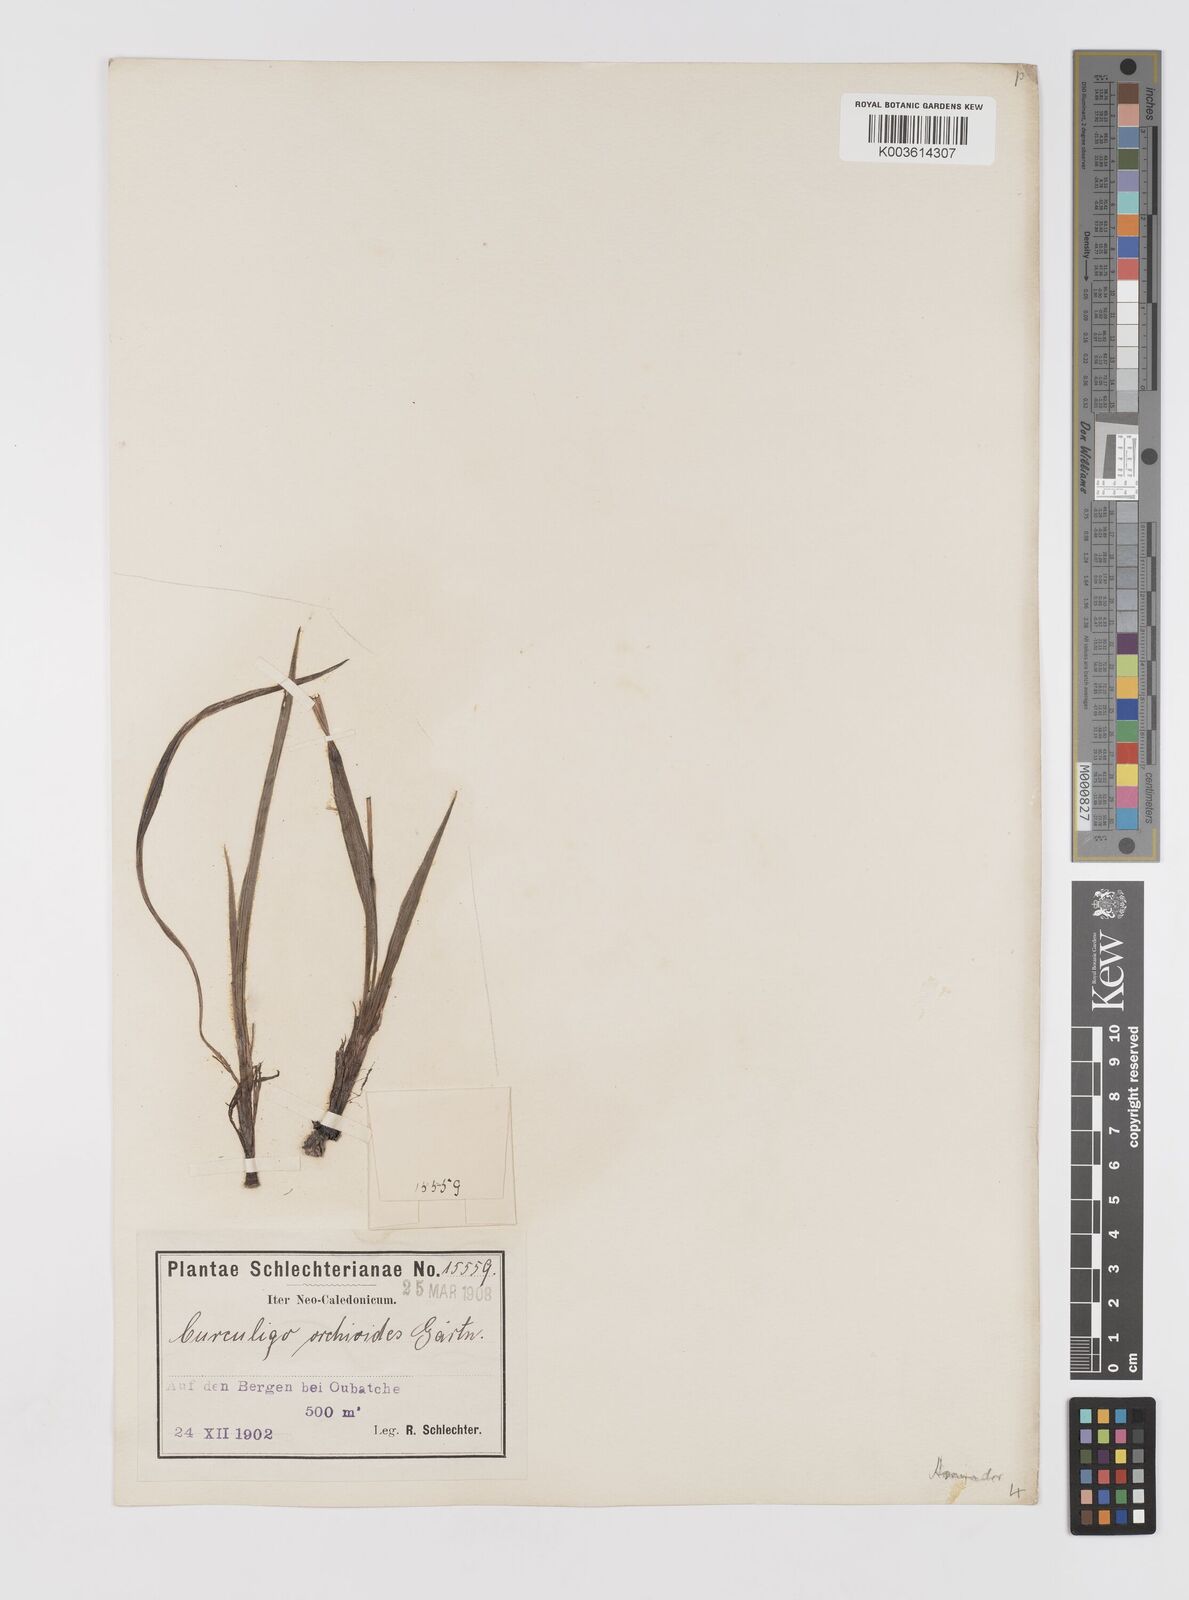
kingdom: Plantae
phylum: Tracheophyta
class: Liliopsida
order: Asparagales
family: Hypoxidaceae
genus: Curculigo
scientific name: Curculigo orchioides
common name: Golden eye-grass
